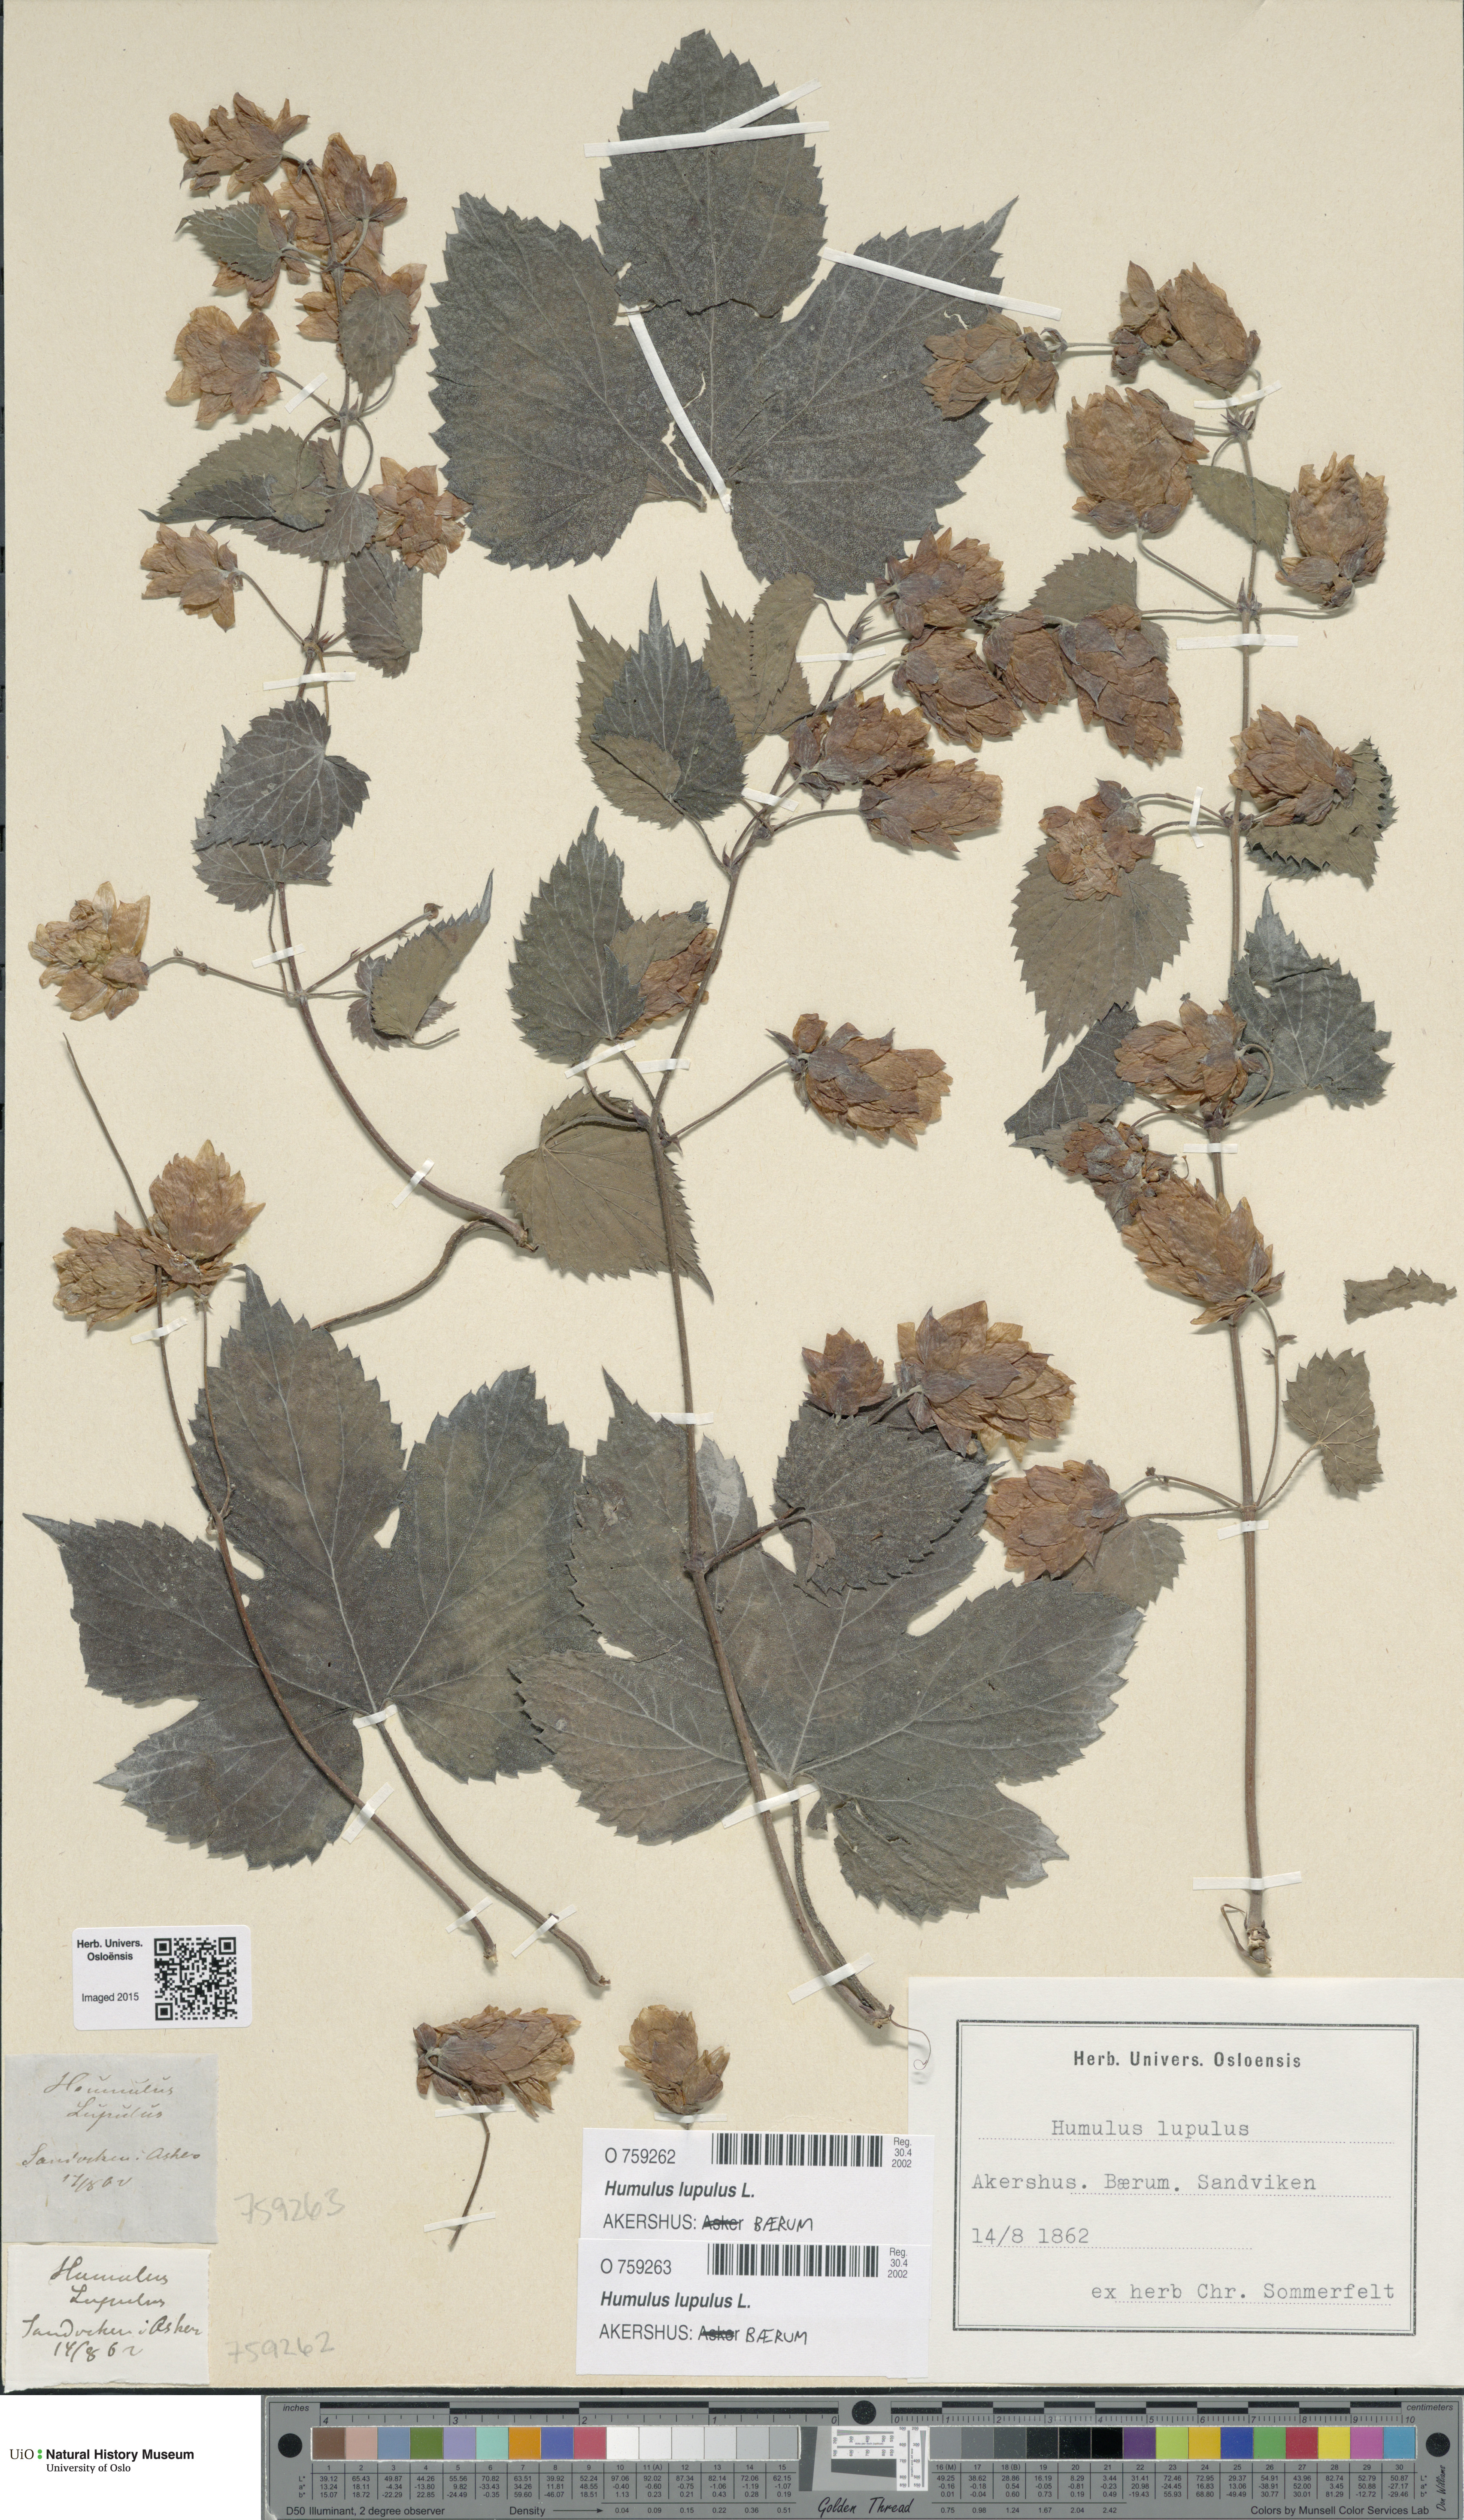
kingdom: Plantae
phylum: Tracheophyta
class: Magnoliopsida
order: Rosales
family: Cannabaceae
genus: Humulus
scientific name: Humulus lupulus
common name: Hop
